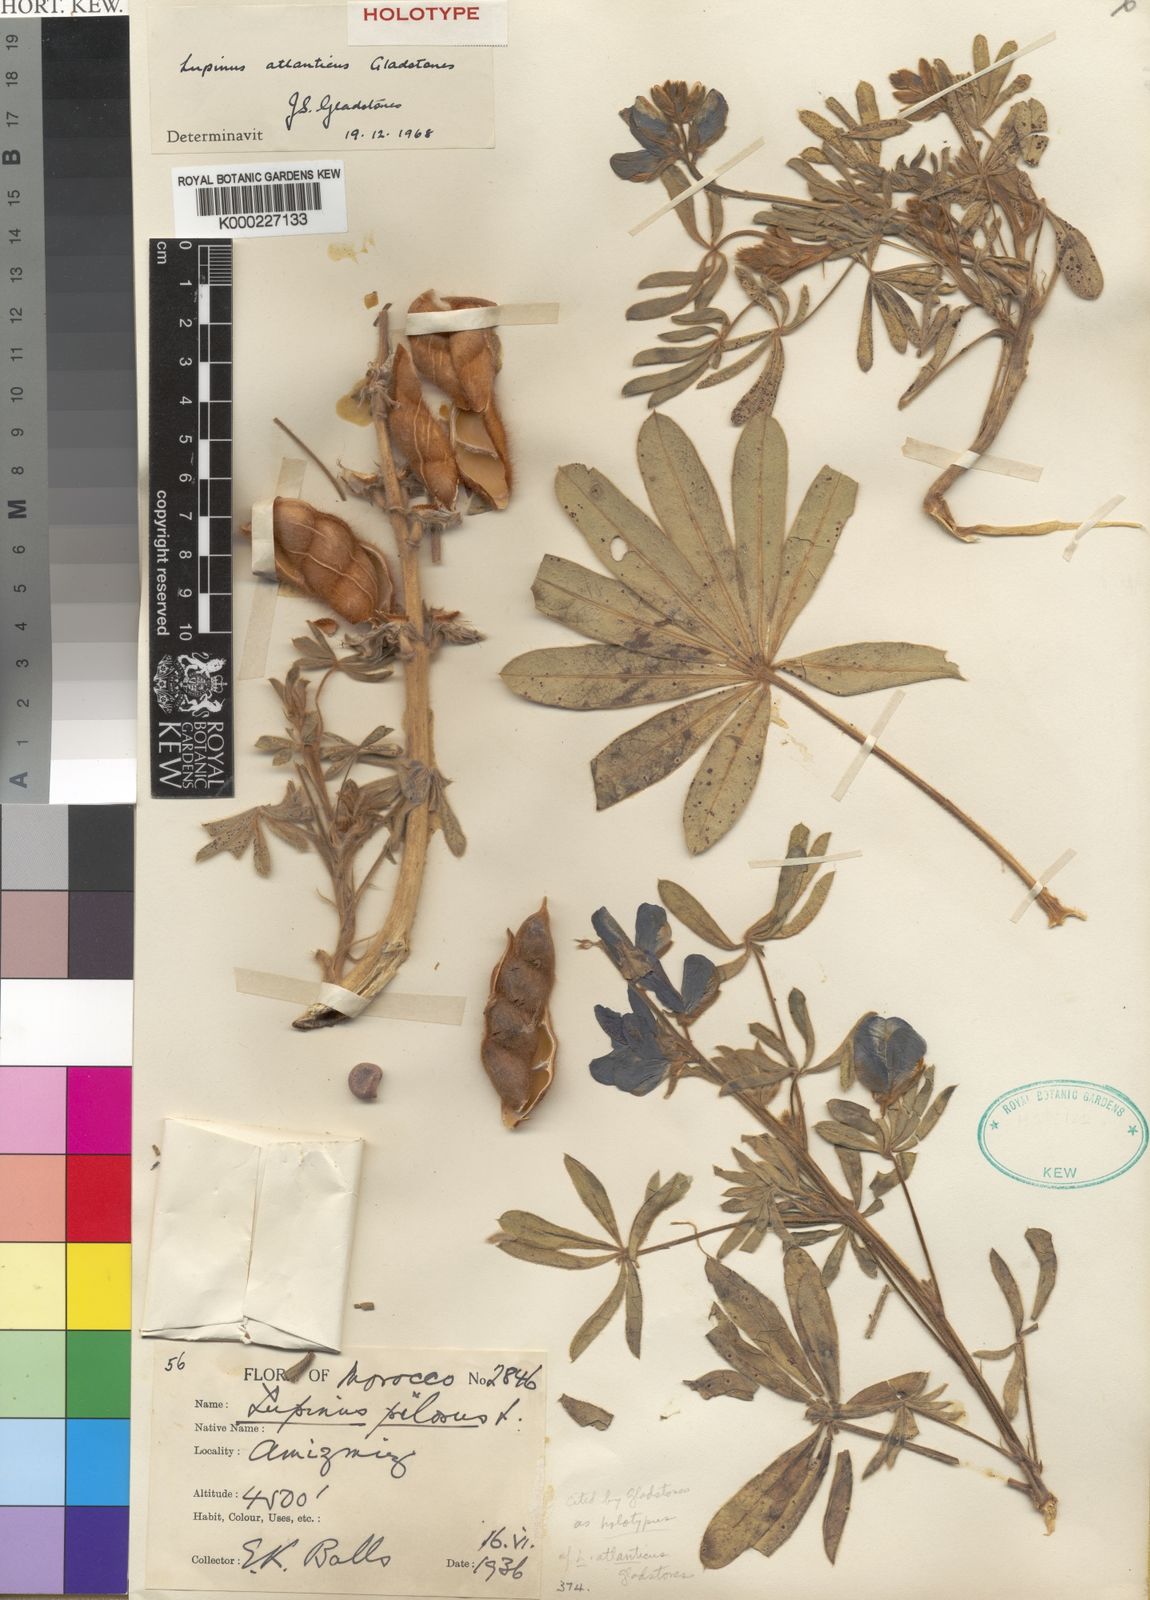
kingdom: Plantae
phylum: Tracheophyta
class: Magnoliopsida
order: Fabales
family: Fabaceae
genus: Lupinus
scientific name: Lupinus atlanticus
